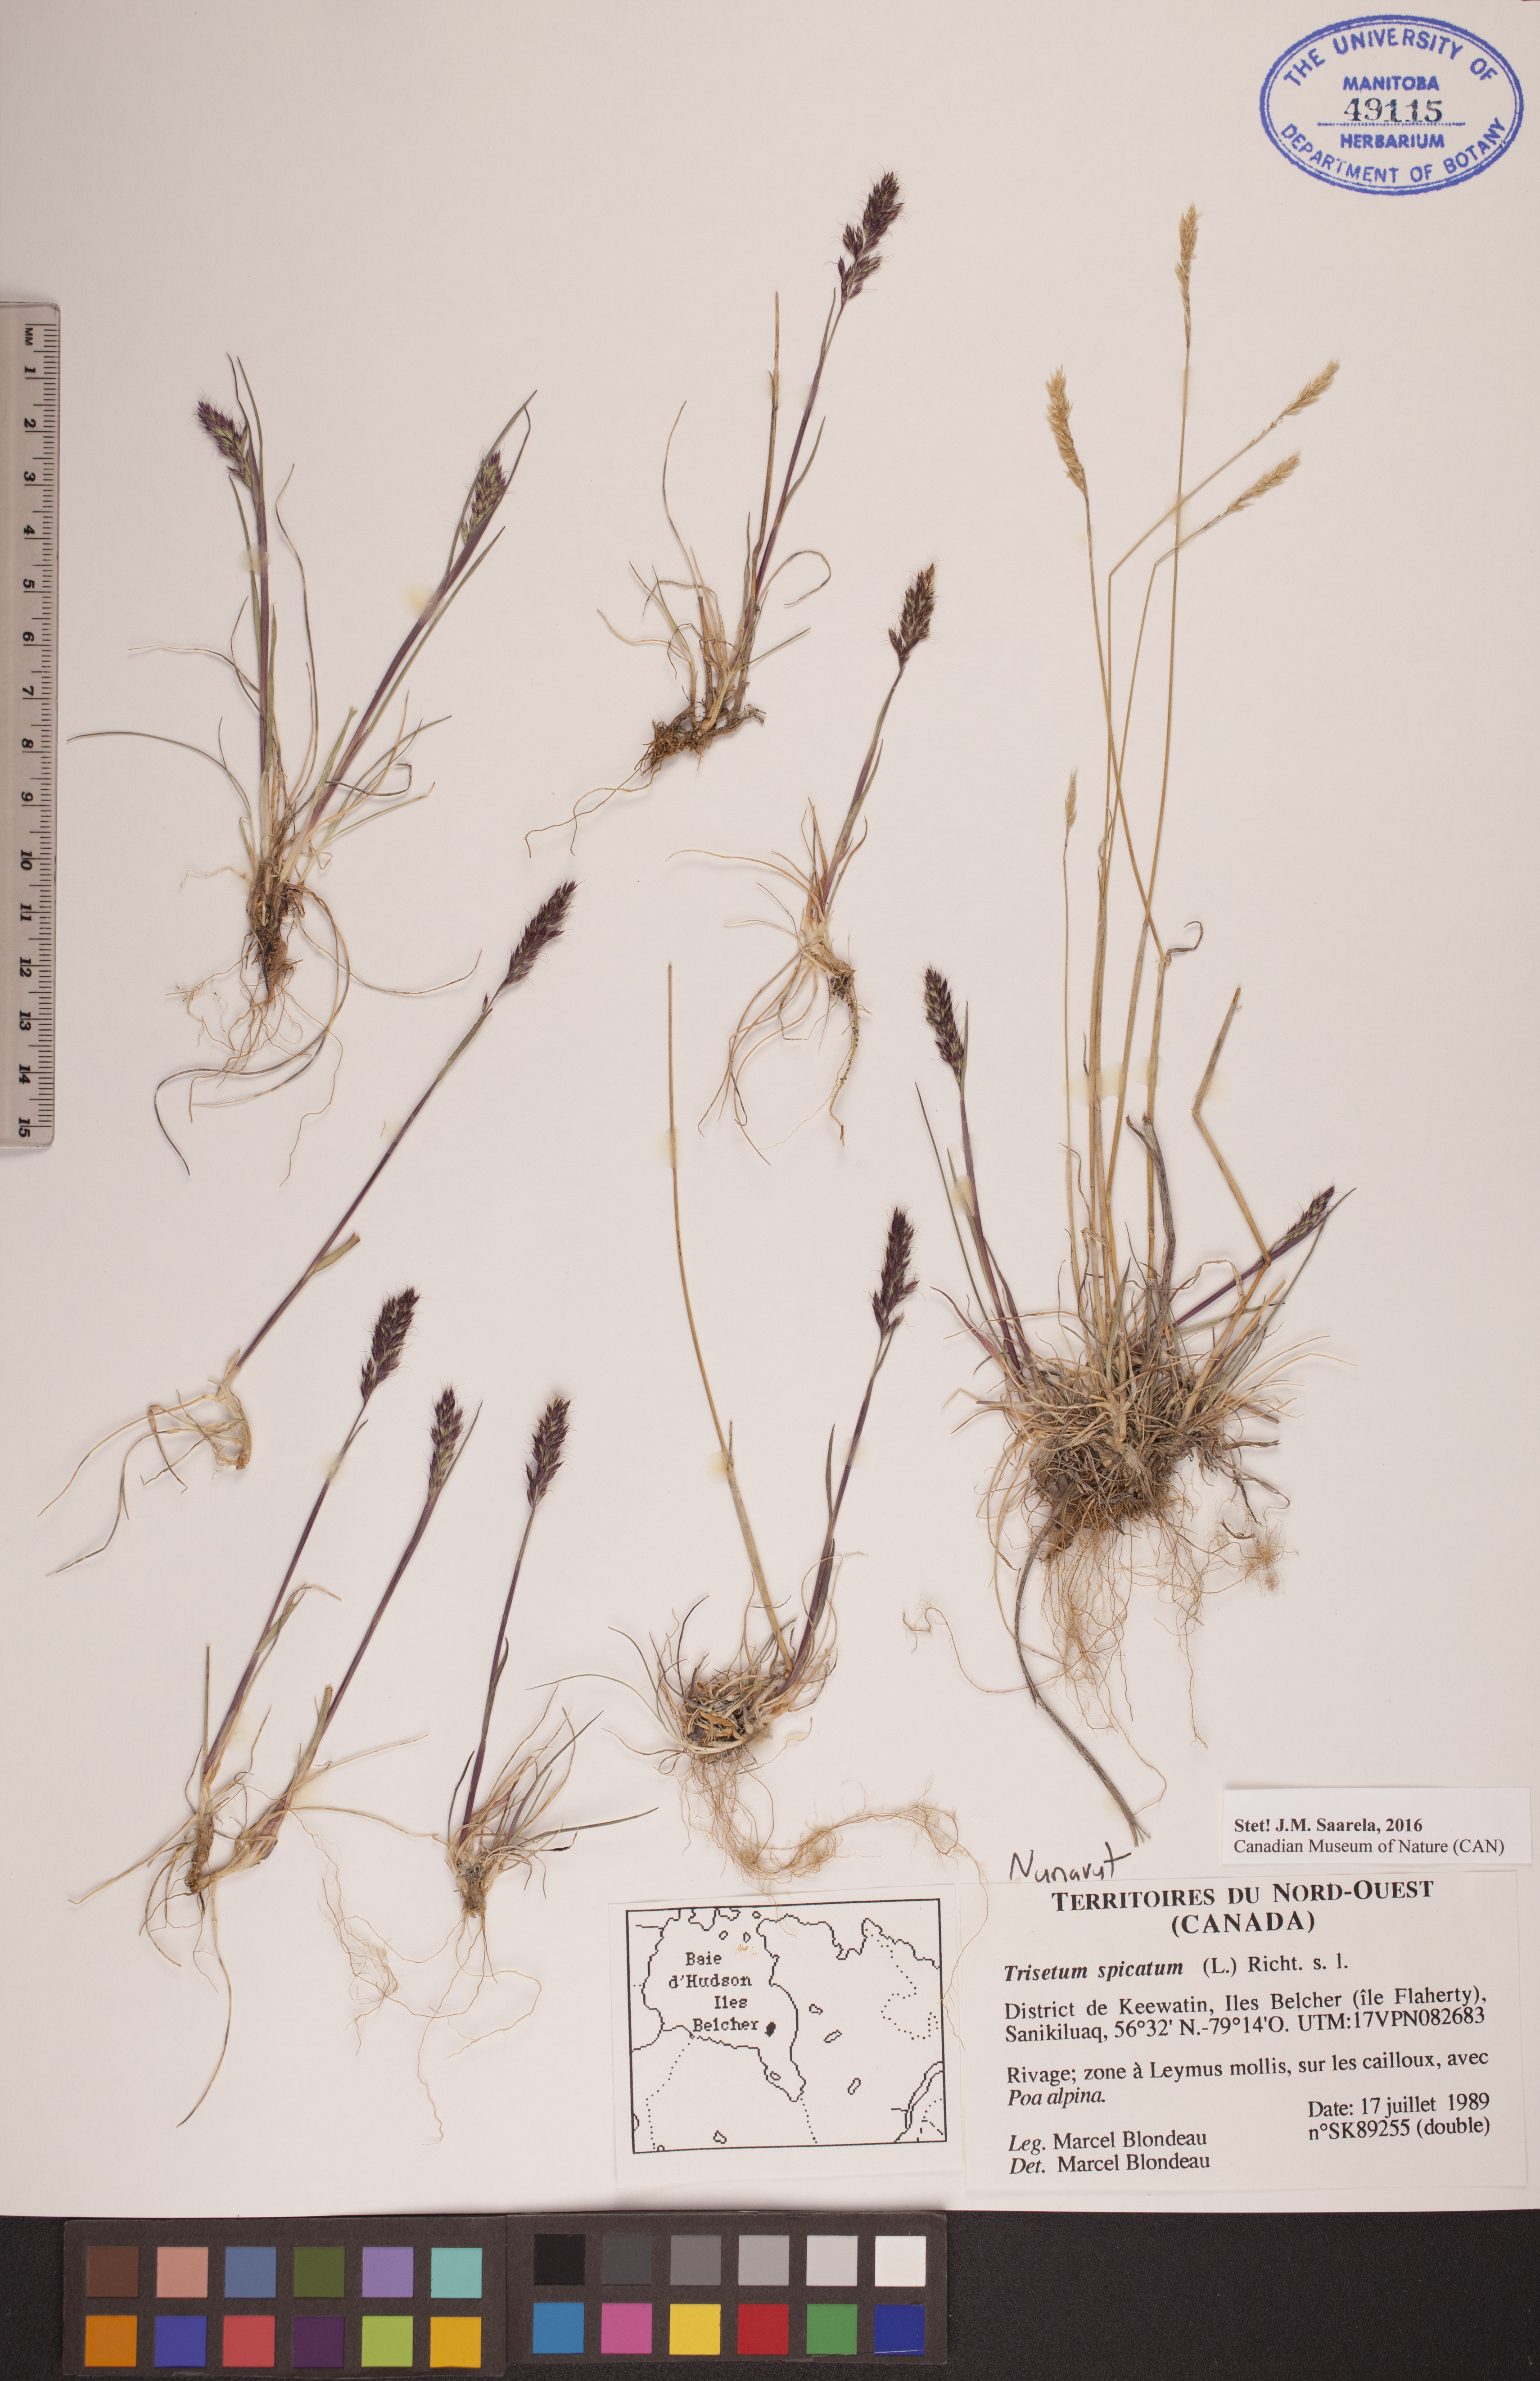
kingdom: Plantae
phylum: Tracheophyta
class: Liliopsida
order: Poales
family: Poaceae
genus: Koeleria
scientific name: Koeleria spicata
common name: Mountain trisetum
